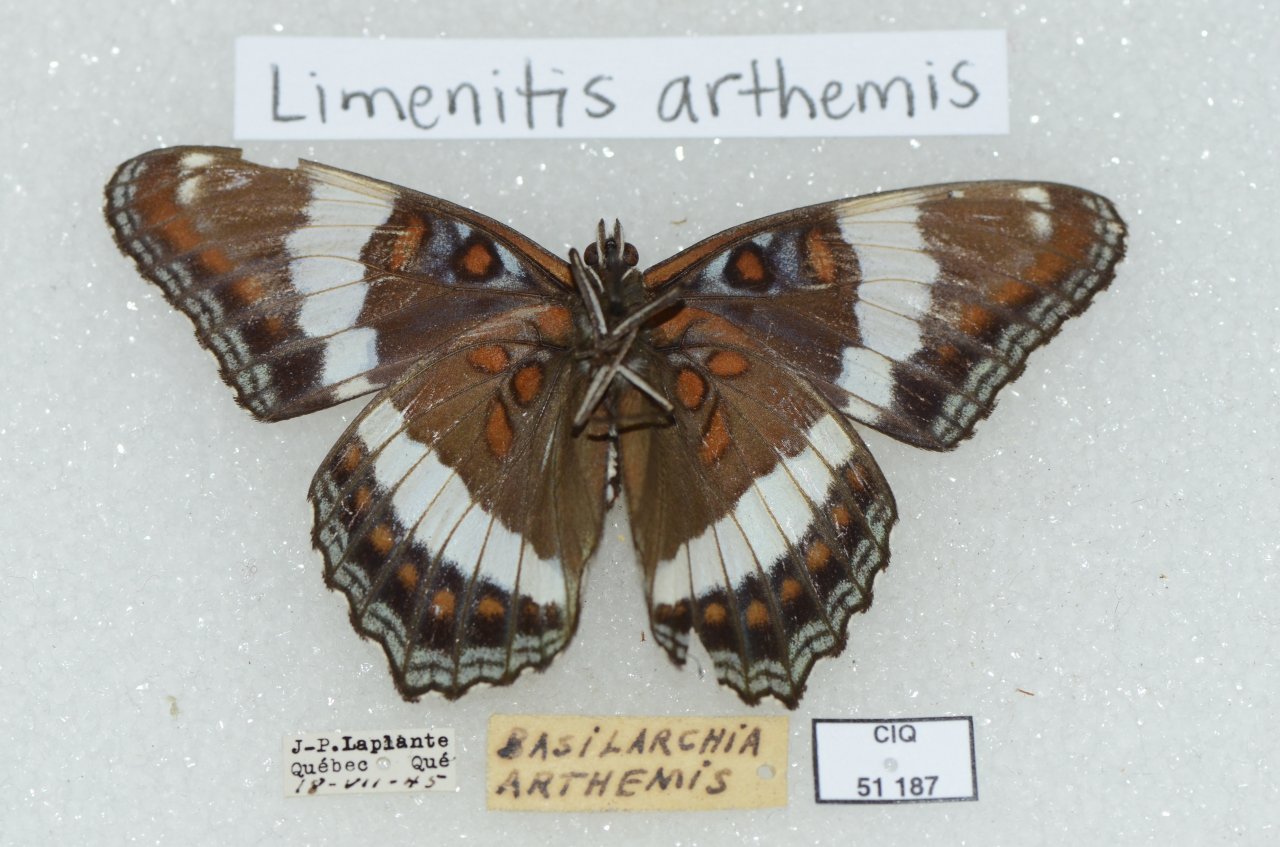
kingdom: Animalia
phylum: Arthropoda
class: Insecta
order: Lepidoptera
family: Nymphalidae
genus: Limenitis
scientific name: Limenitis arthemis
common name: Red-spotted Admiral
